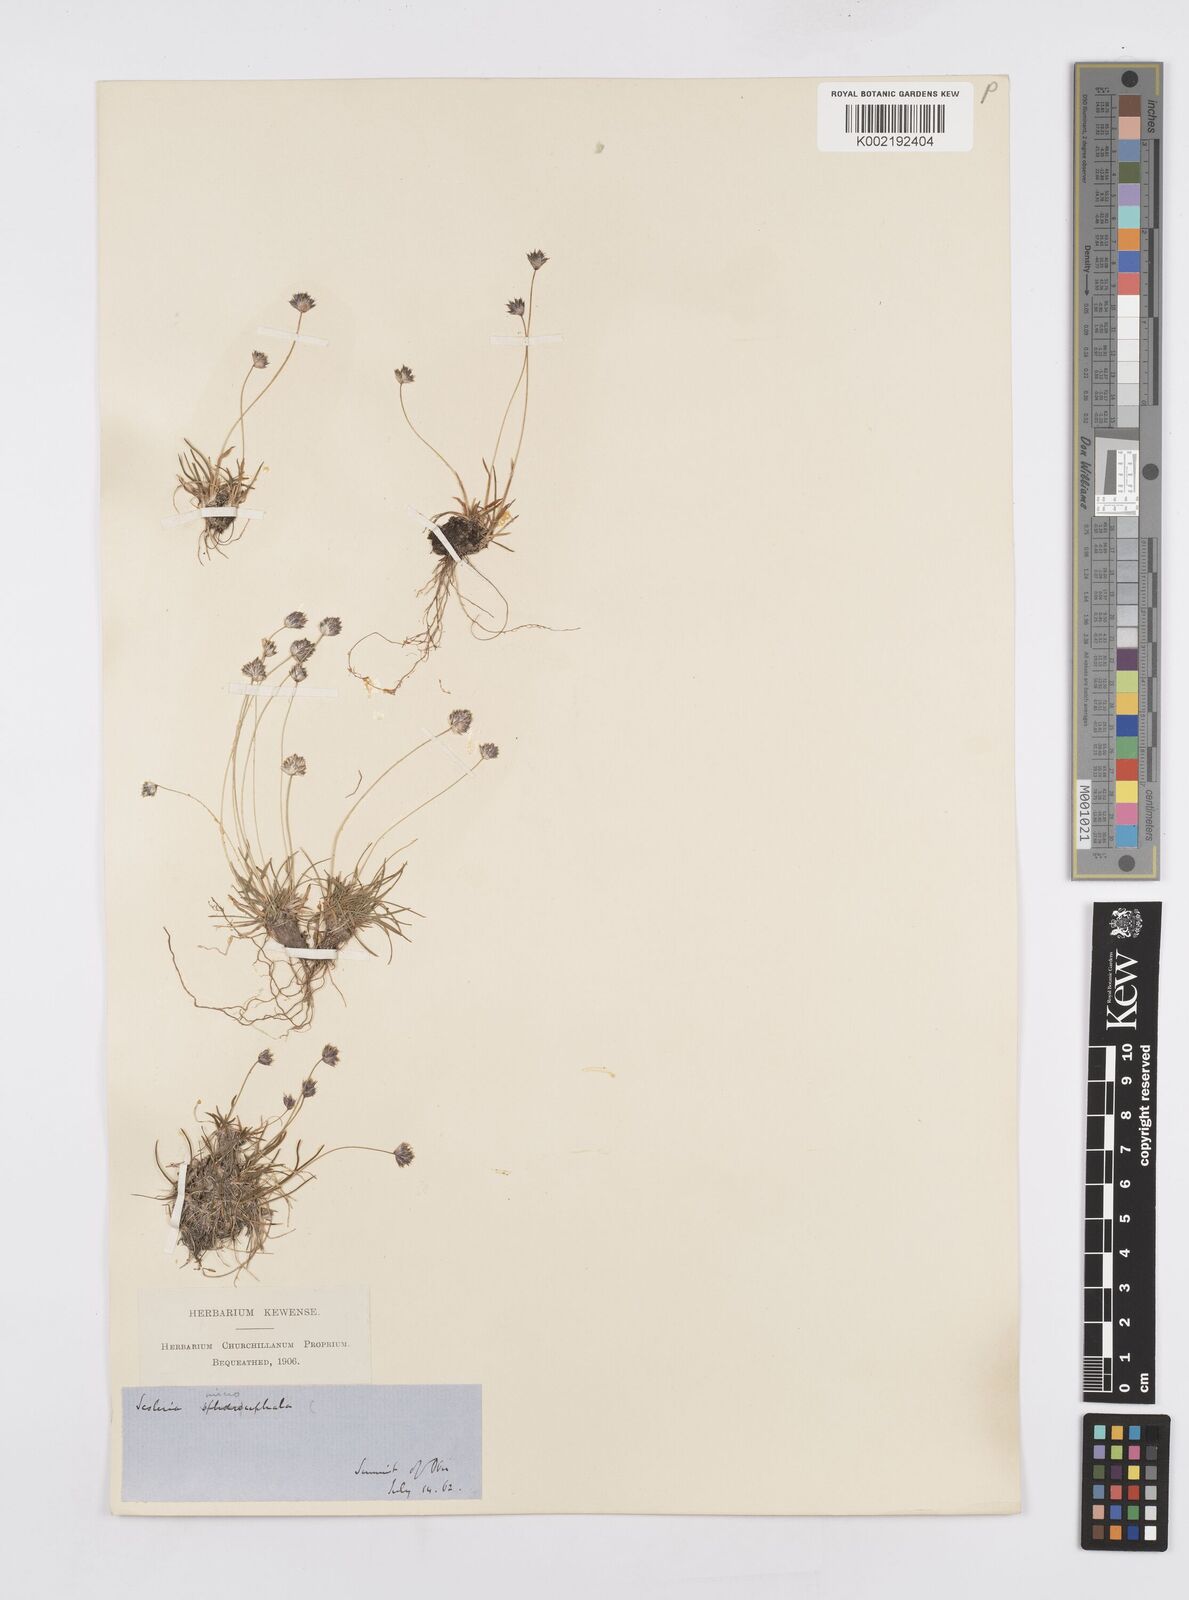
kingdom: Plantae
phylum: Tracheophyta
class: Liliopsida
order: Poales
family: Poaceae
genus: Psilathera
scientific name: Psilathera ovata
